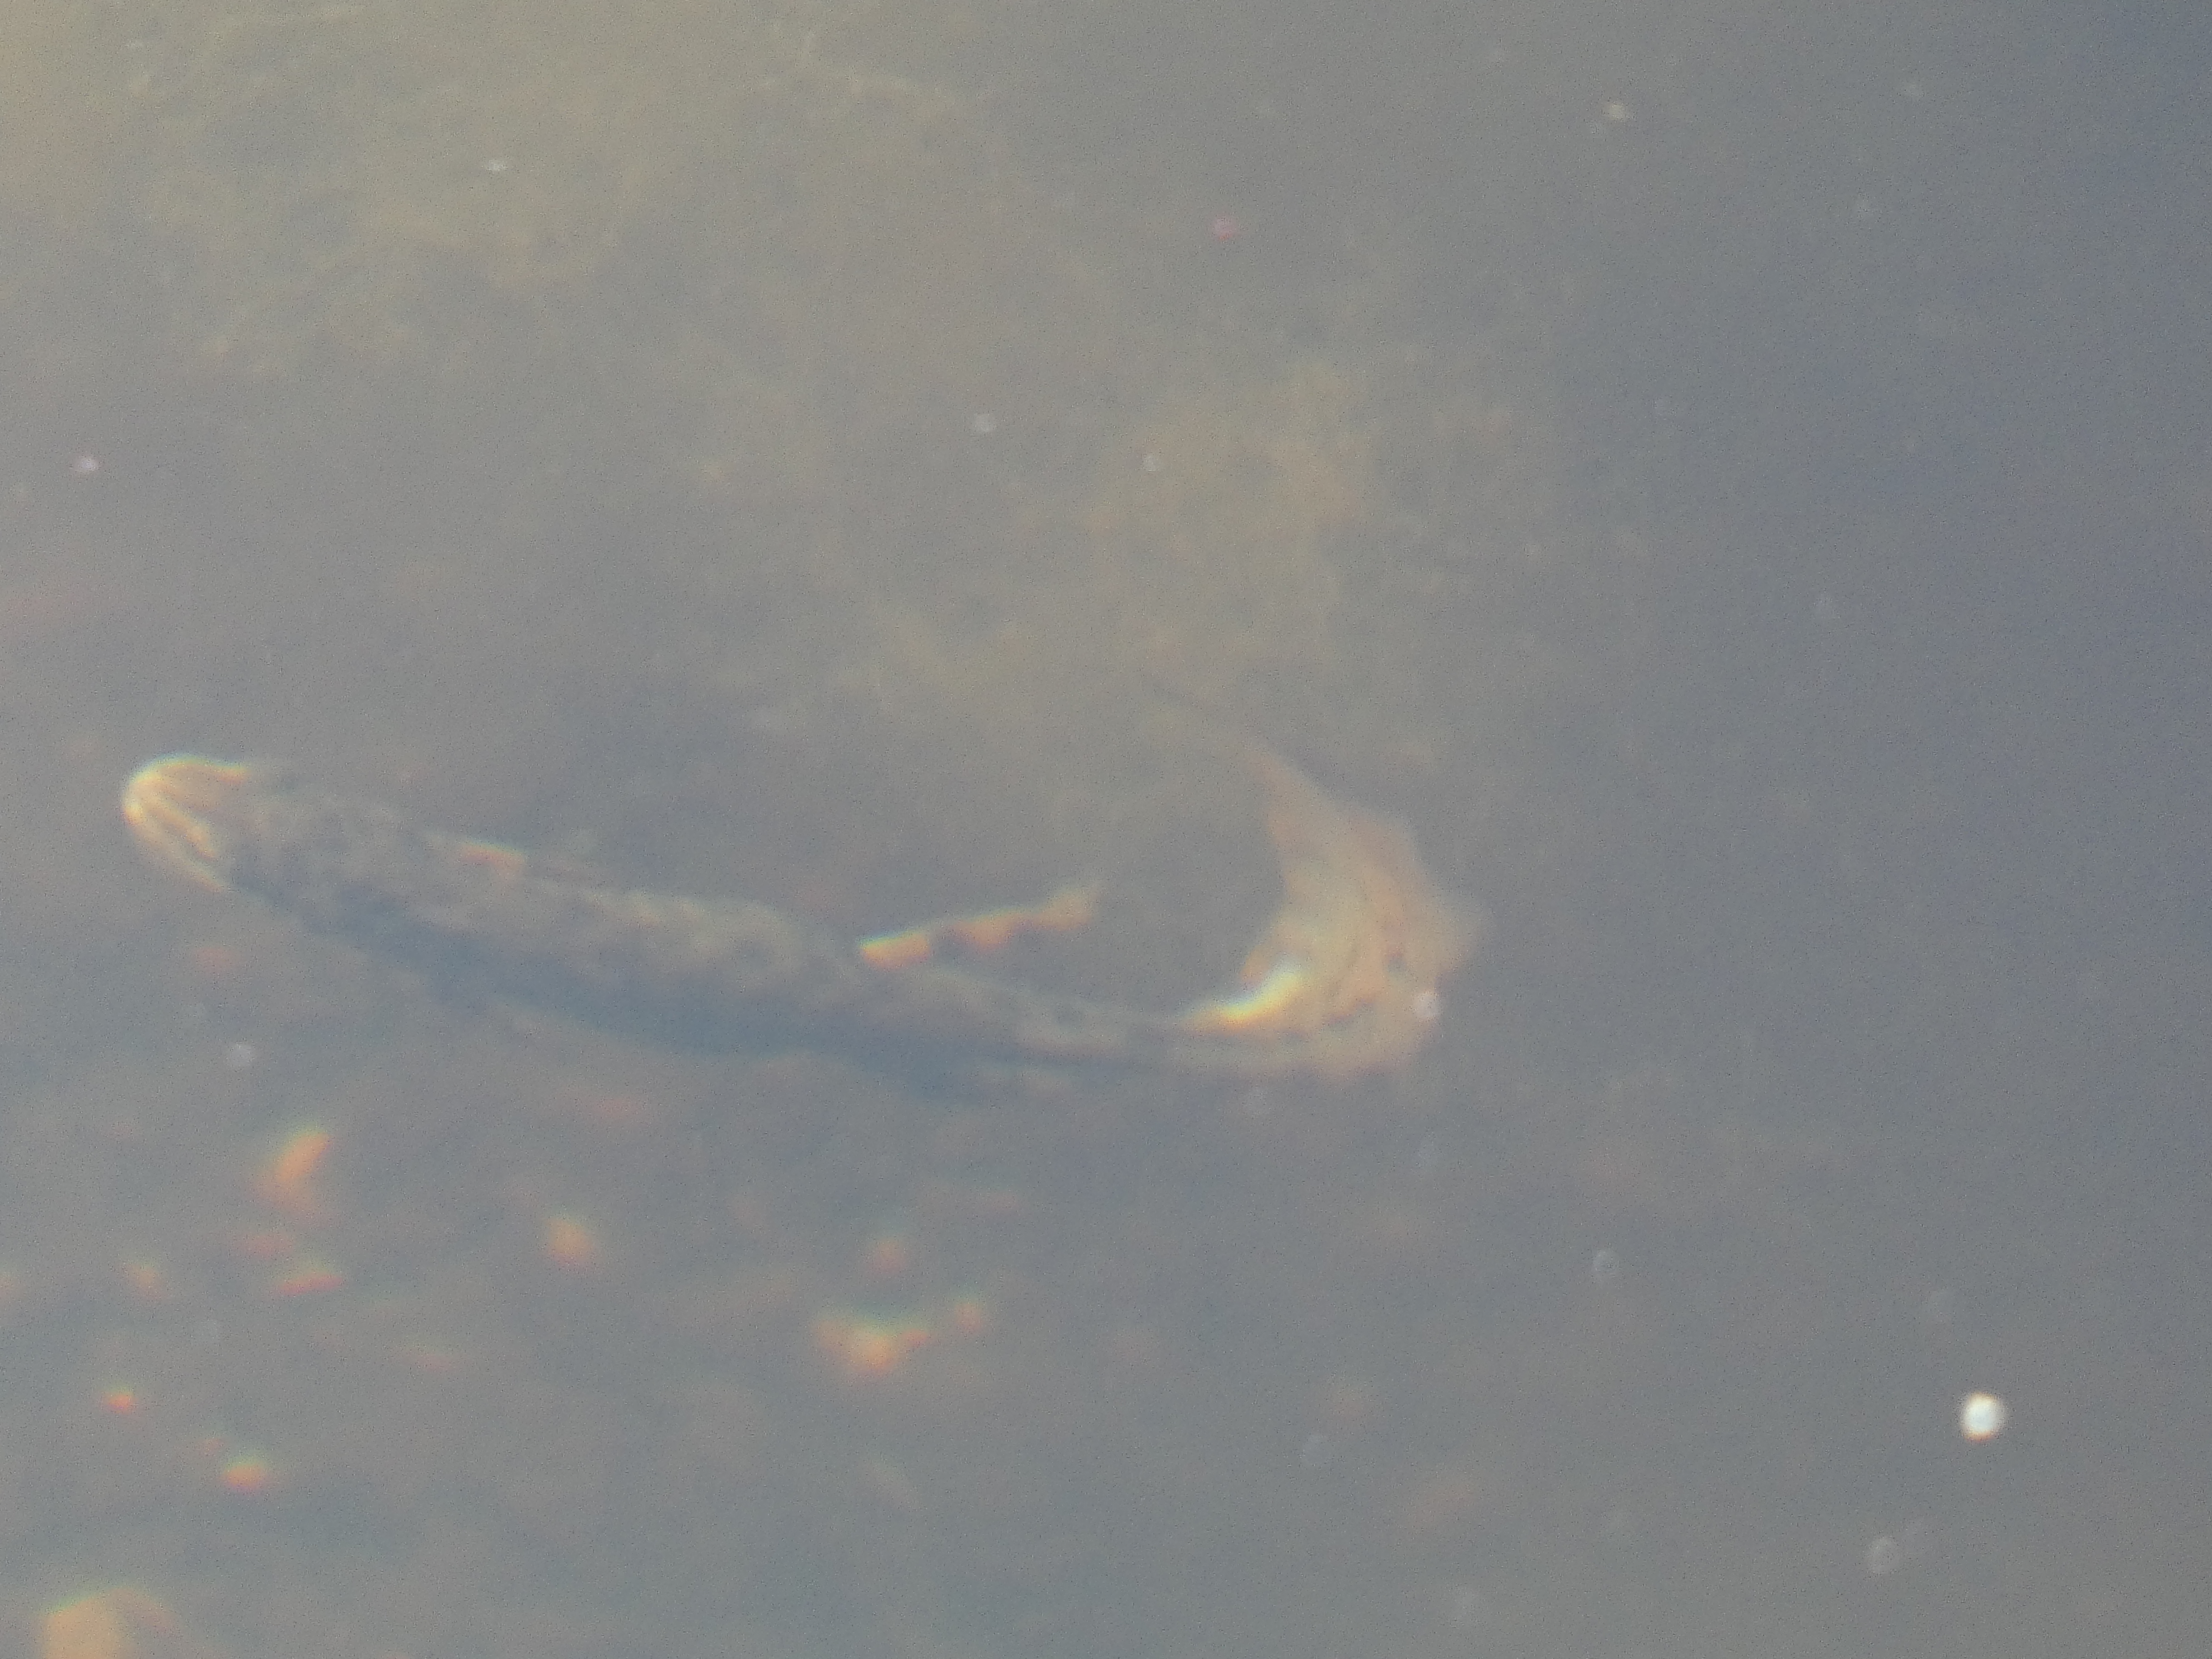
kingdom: Animalia
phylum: Chordata
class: Amphibia
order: Caudata
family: Salamandridae
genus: Lissotriton
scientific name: Lissotriton vulgaris
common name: Lille vandsalamander
